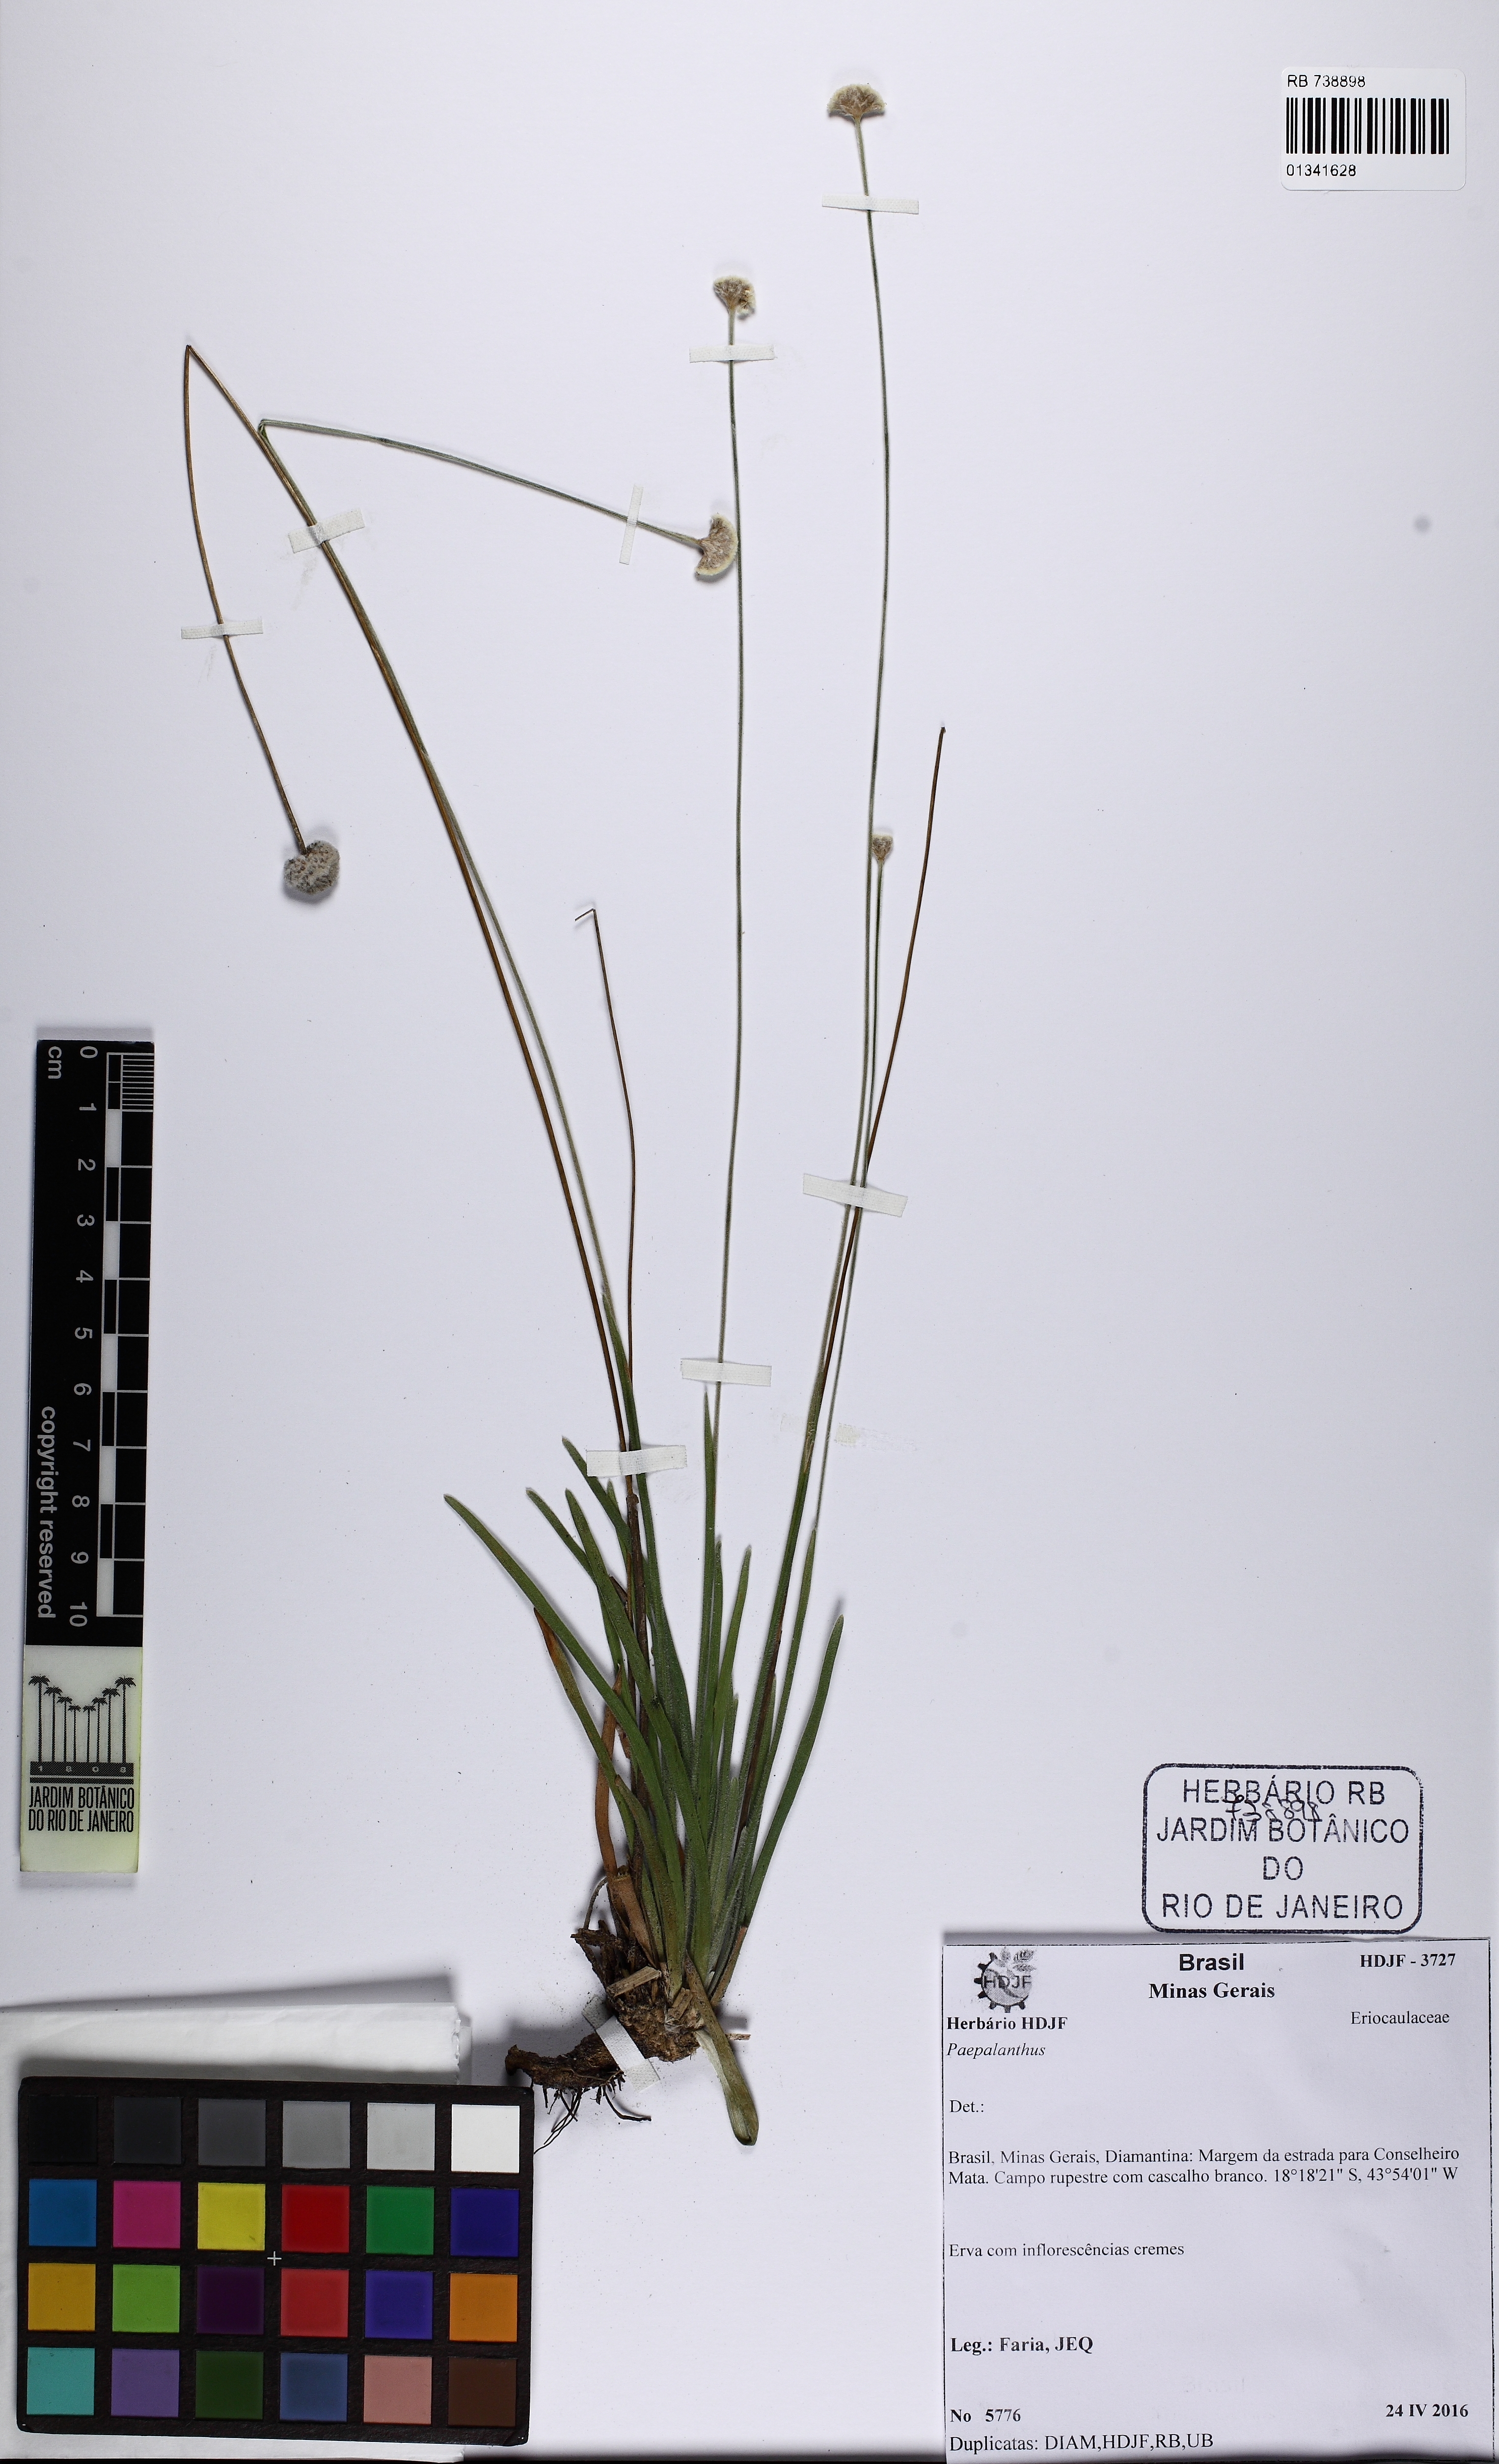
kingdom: Plantae
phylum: Tracheophyta
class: Liliopsida
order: Poales
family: Eriocaulaceae
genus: Paepalanthus
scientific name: Paepalanthus falcifolius
